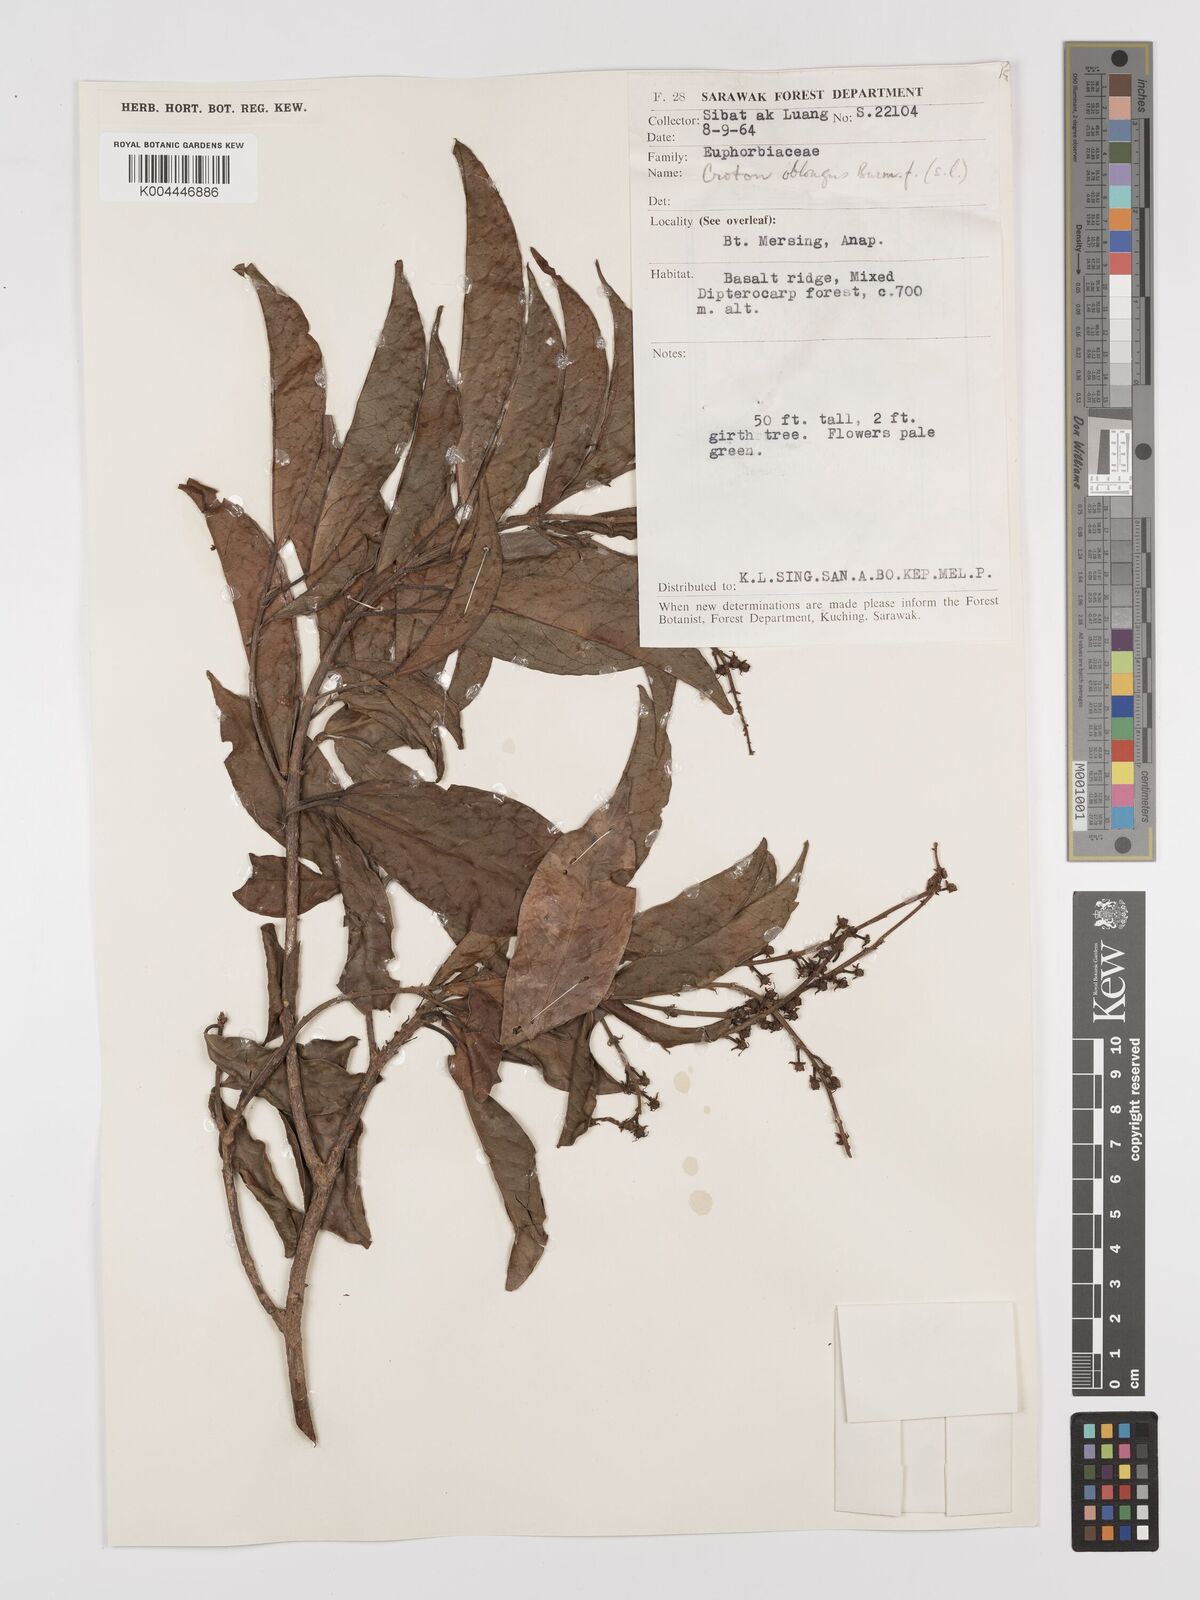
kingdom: Plantae
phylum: Tracheophyta
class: Magnoliopsida
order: Malpighiales
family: Euphorbiaceae
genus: Croton
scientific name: Croton oblongus
